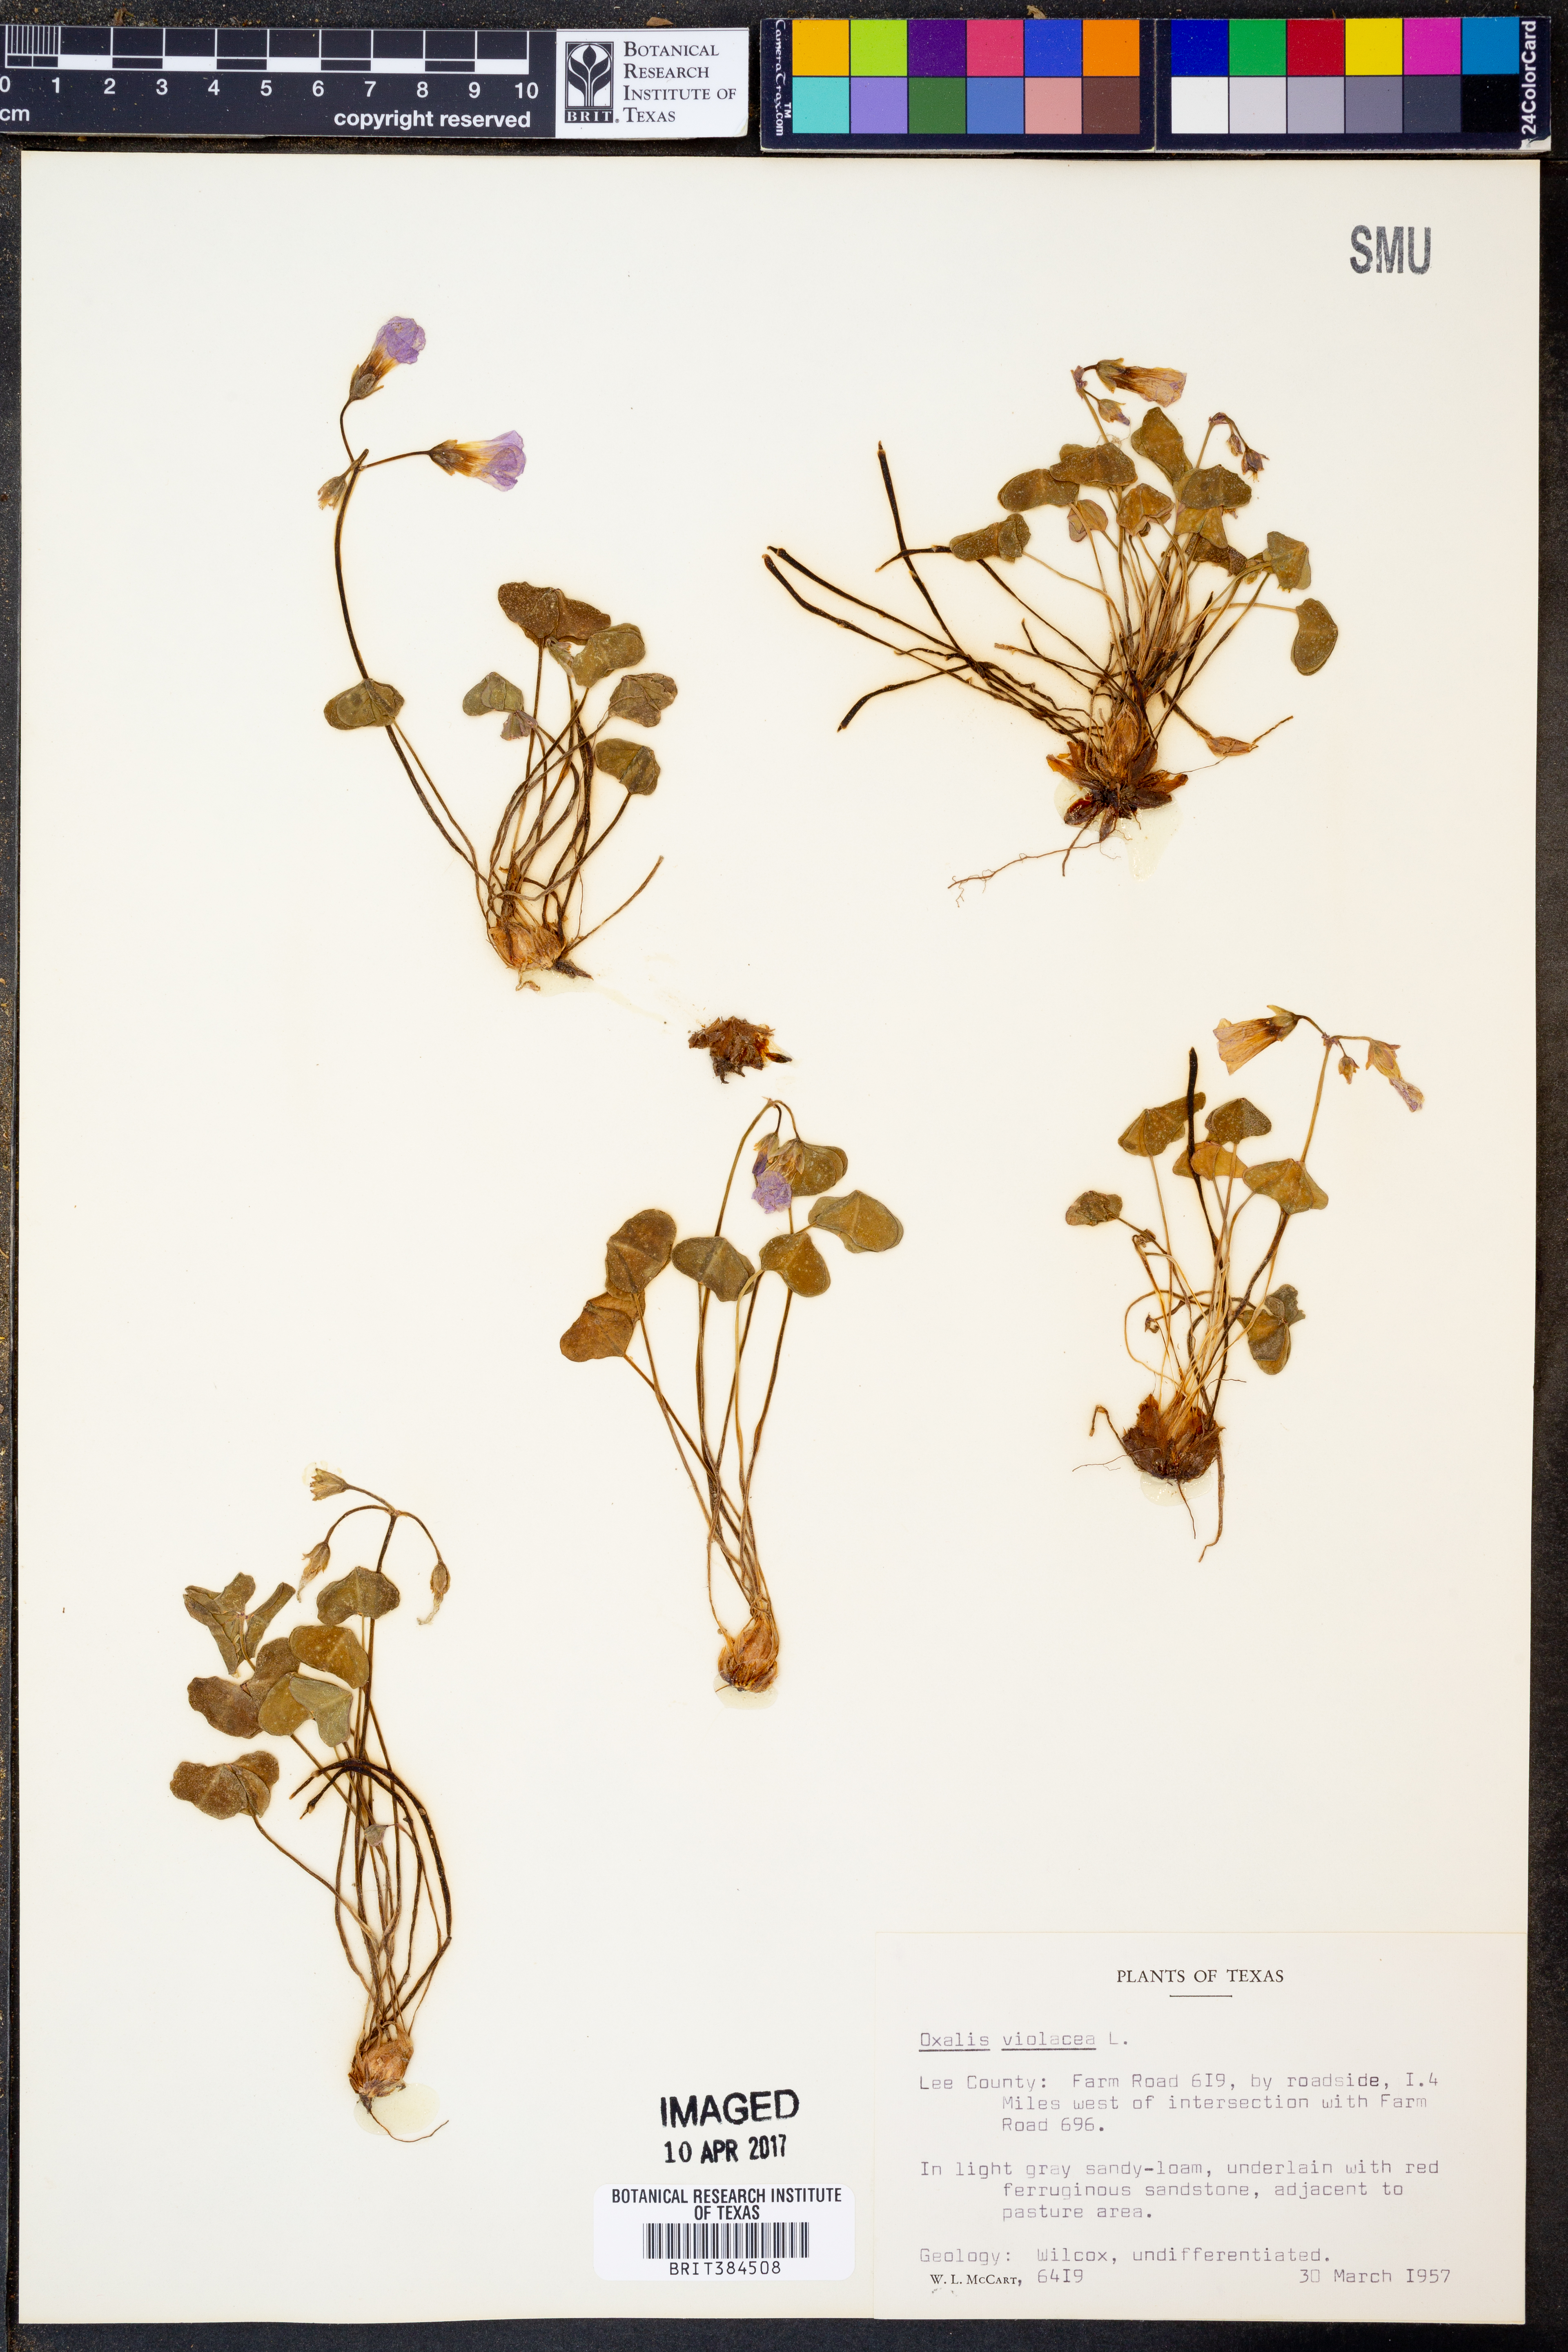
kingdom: Plantae
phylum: Tracheophyta
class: Magnoliopsida
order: Oxalidales
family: Oxalidaceae
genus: Oxalis
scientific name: Oxalis violacea
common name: Violet wood-sorrel
